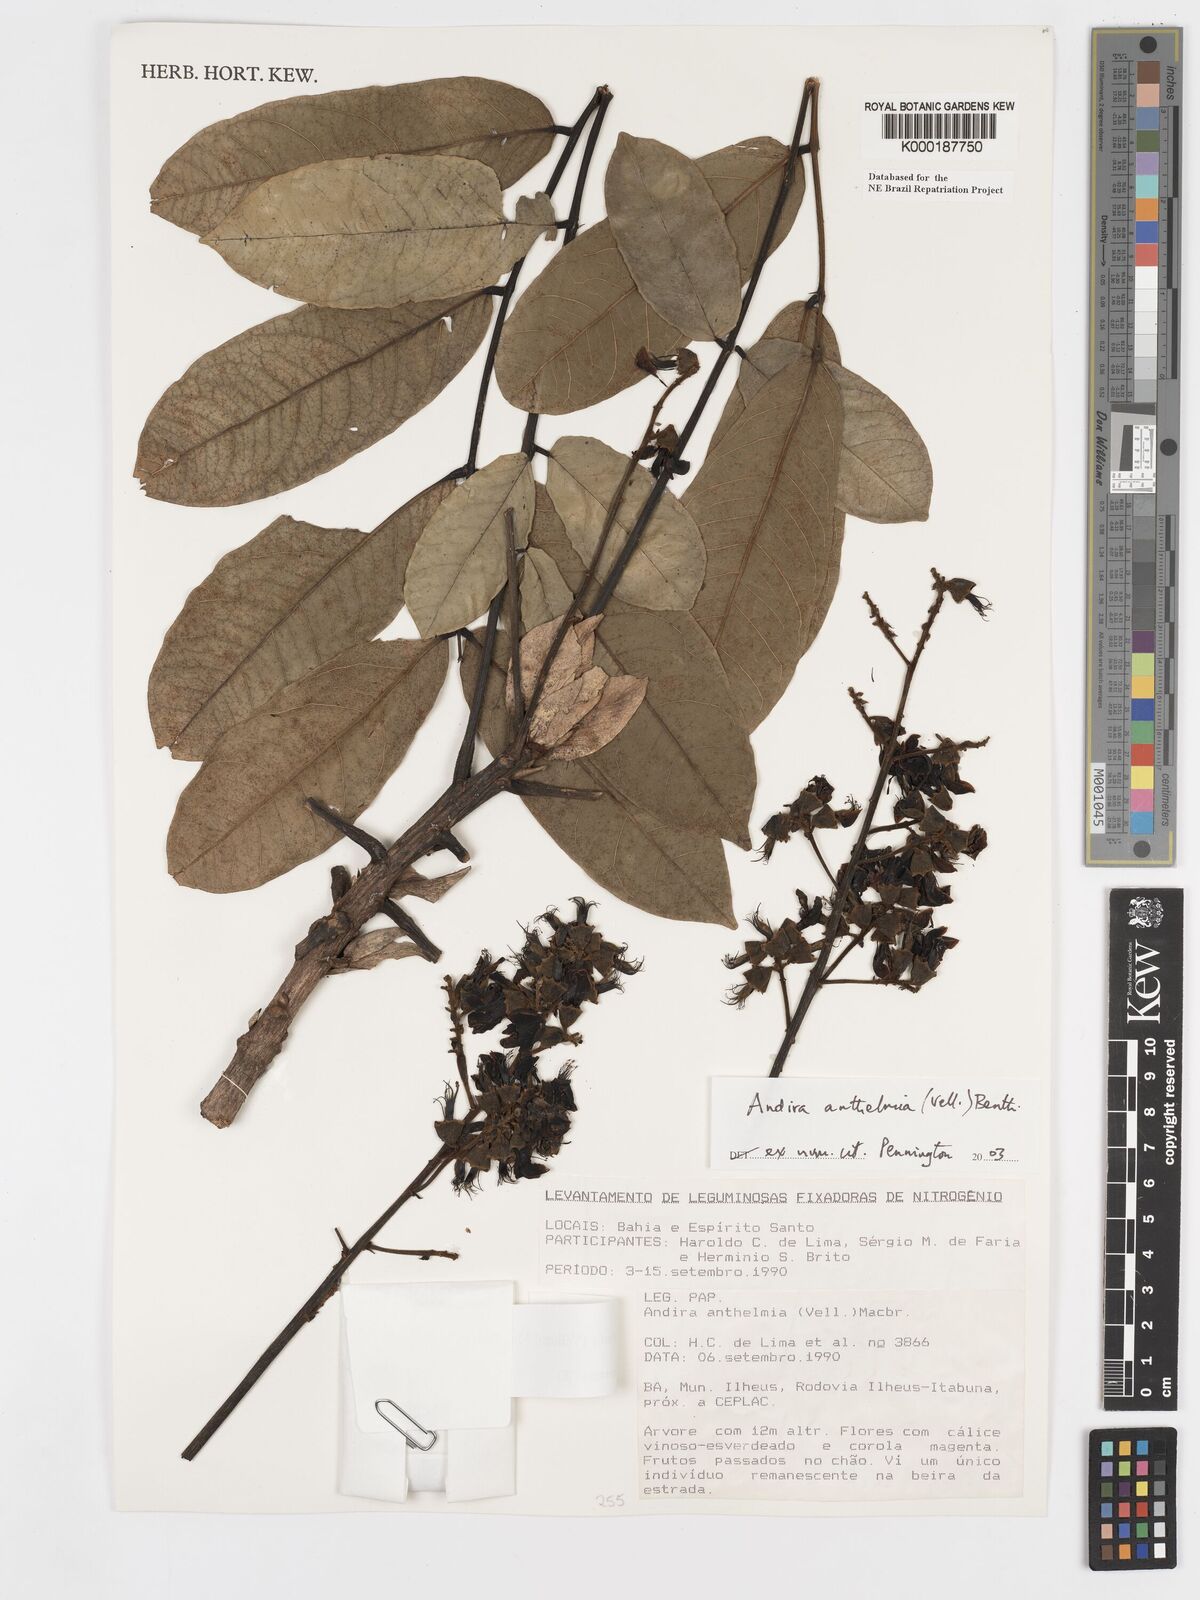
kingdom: Plantae
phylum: Tracheophyta
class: Magnoliopsida
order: Fabales
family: Fabaceae
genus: Andira
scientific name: Andira
